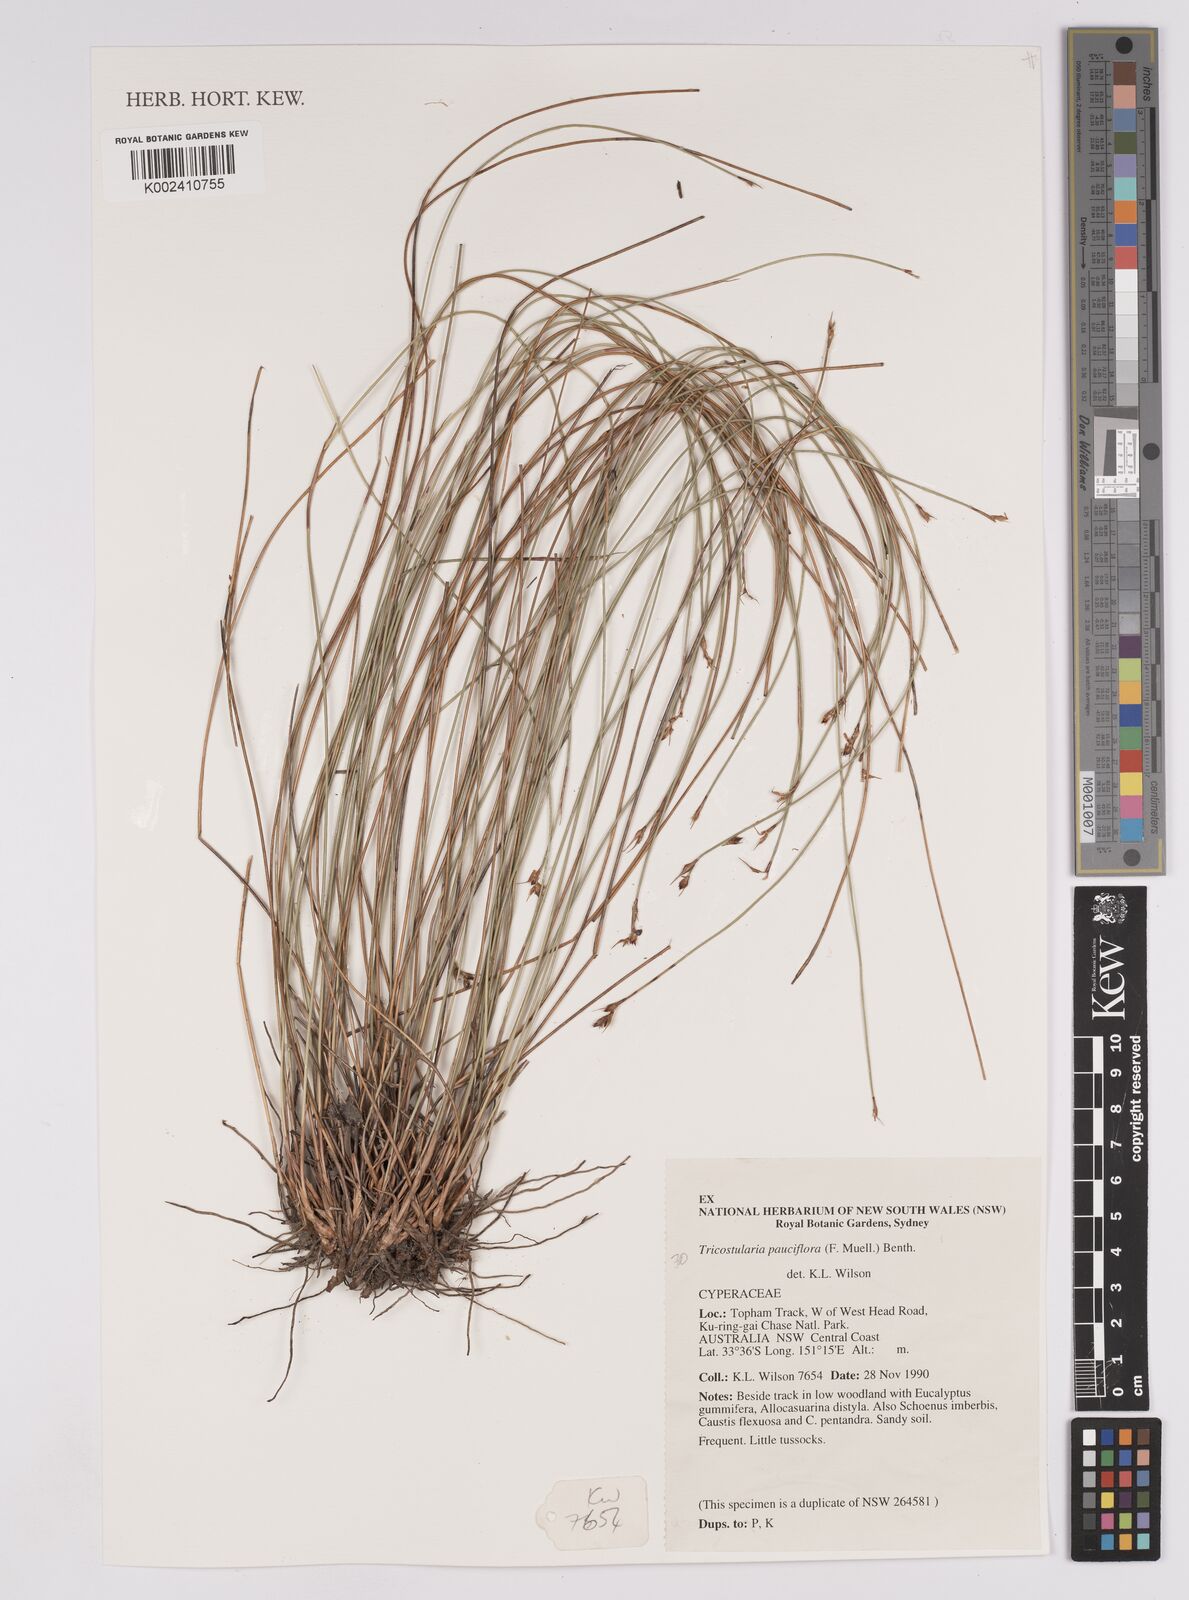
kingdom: Plantae
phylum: Tracheophyta
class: Liliopsida
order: Poales
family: Cyperaceae
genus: Tricostularia
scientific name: Tricostularia pauciflora
